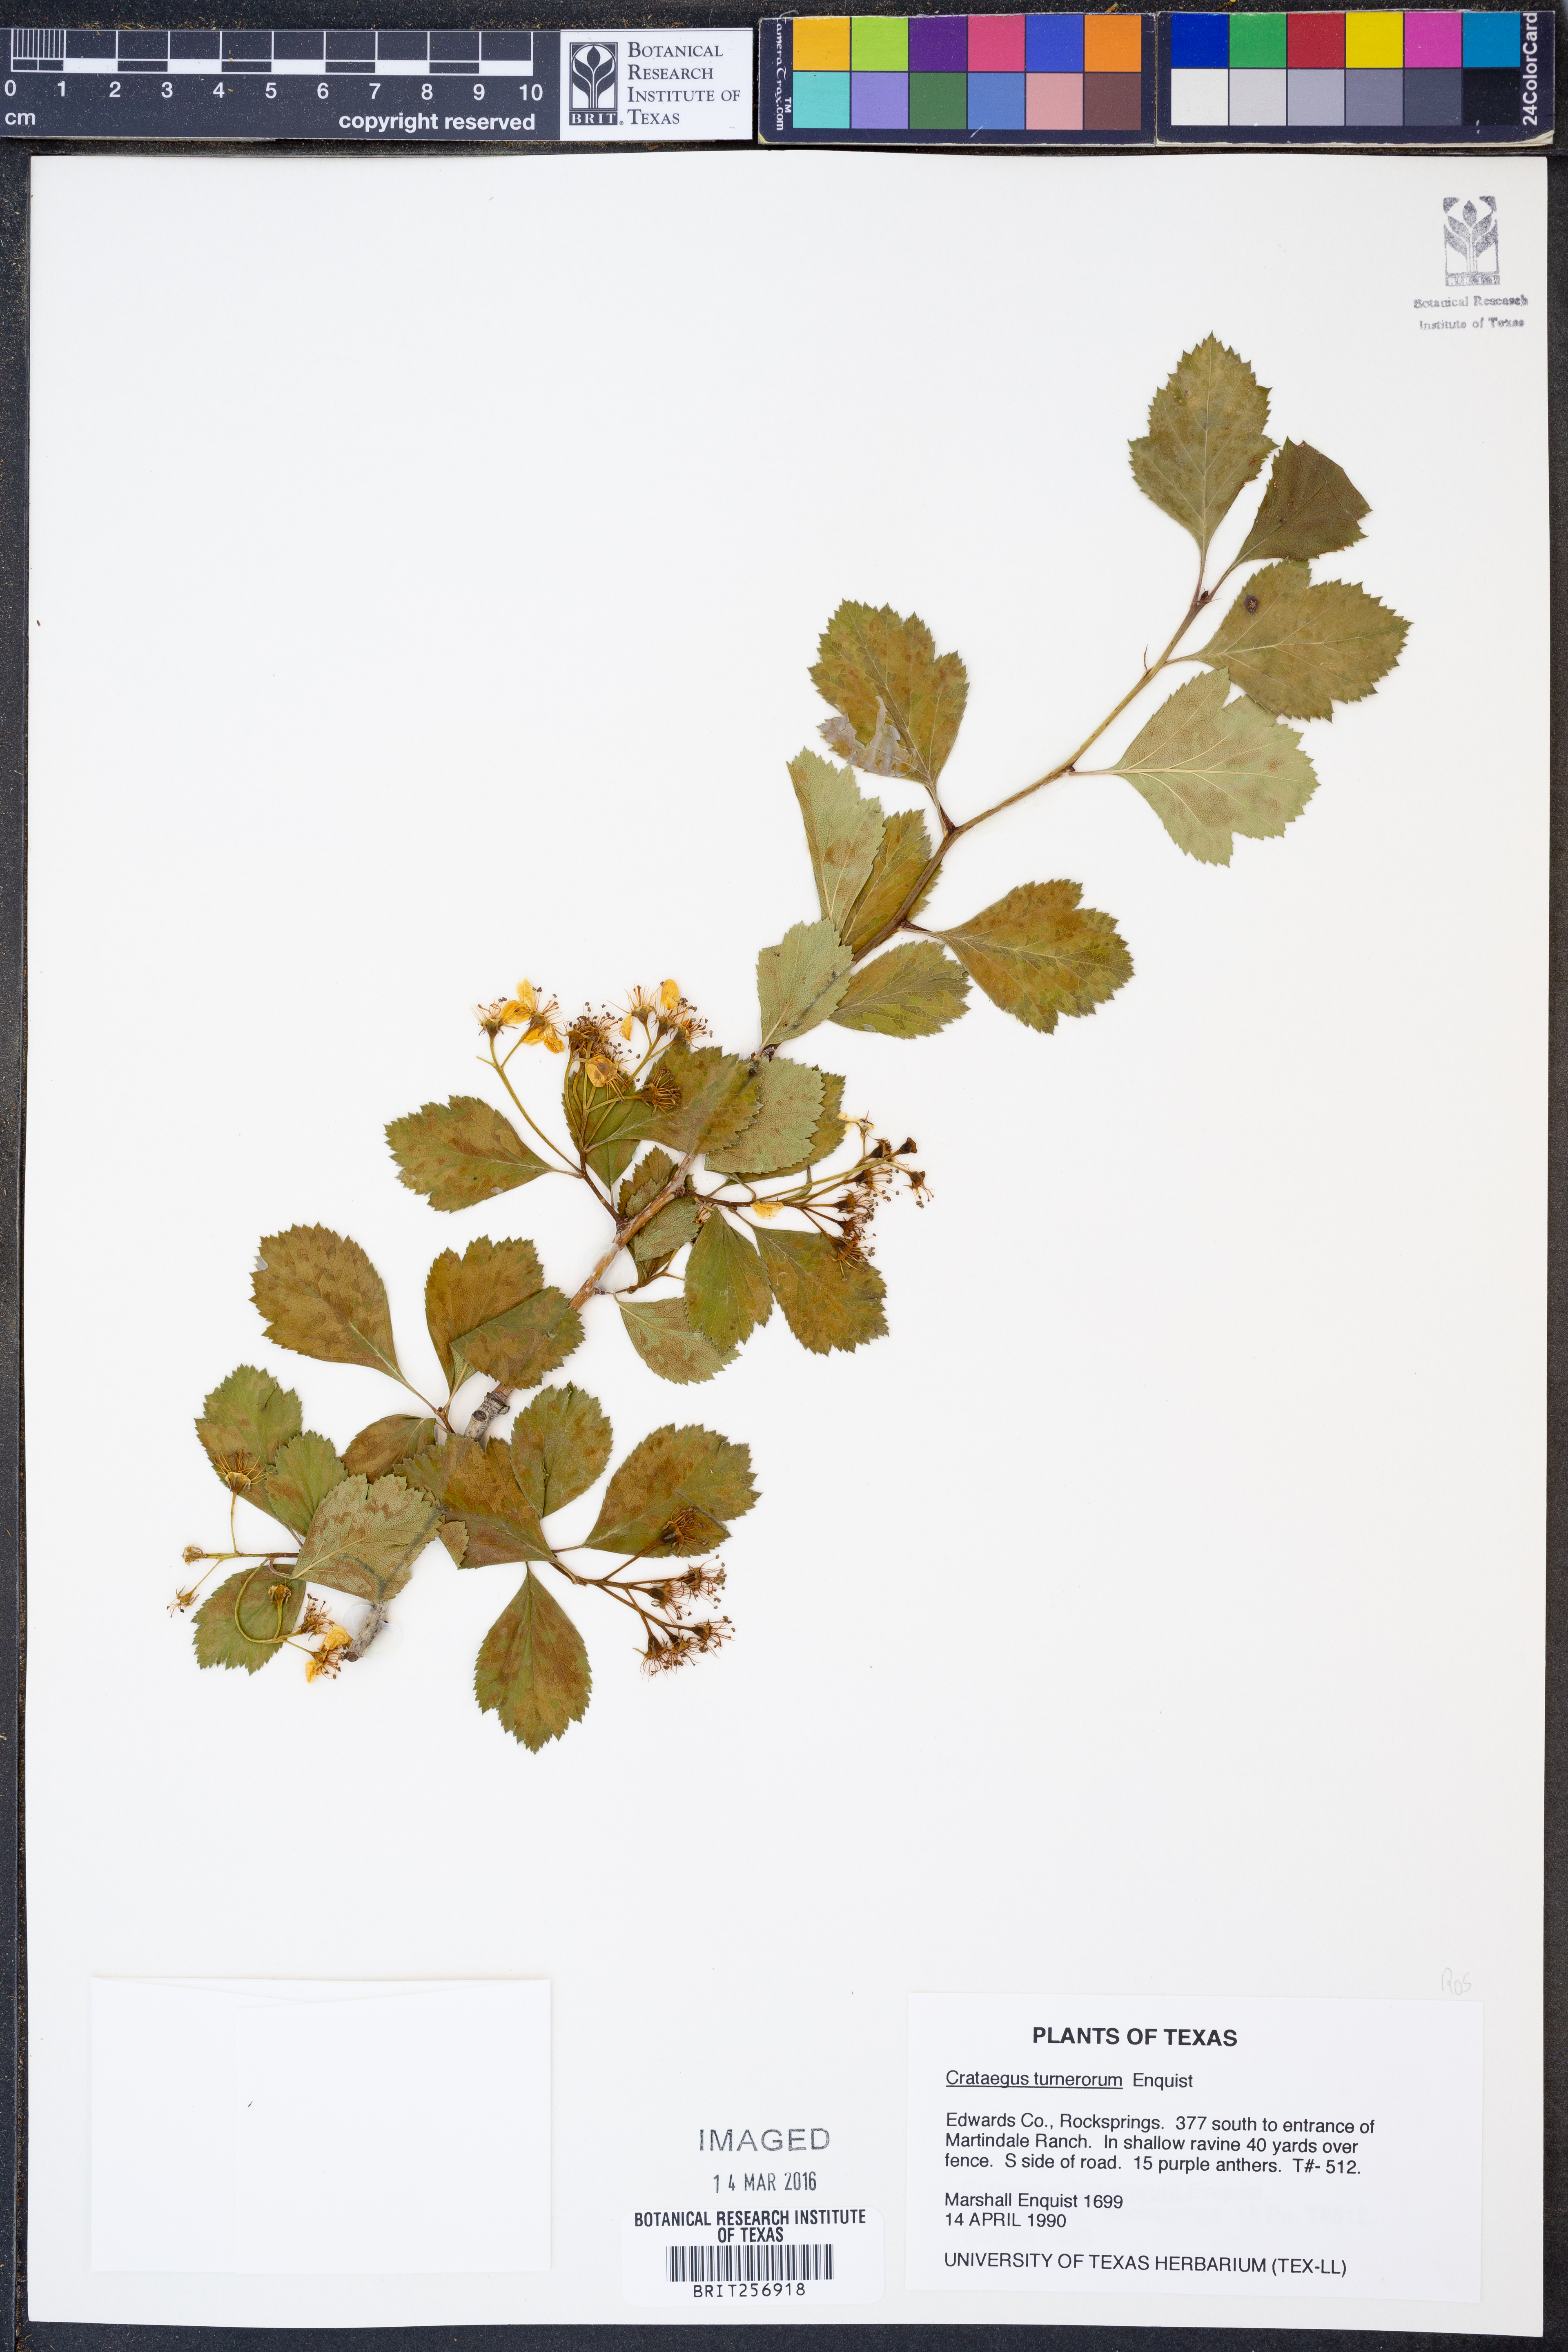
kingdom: Plantae
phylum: Tracheophyta
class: Magnoliopsida
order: Rosales
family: Rosaceae
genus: Crataegus
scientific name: Crataegus turnerorum
